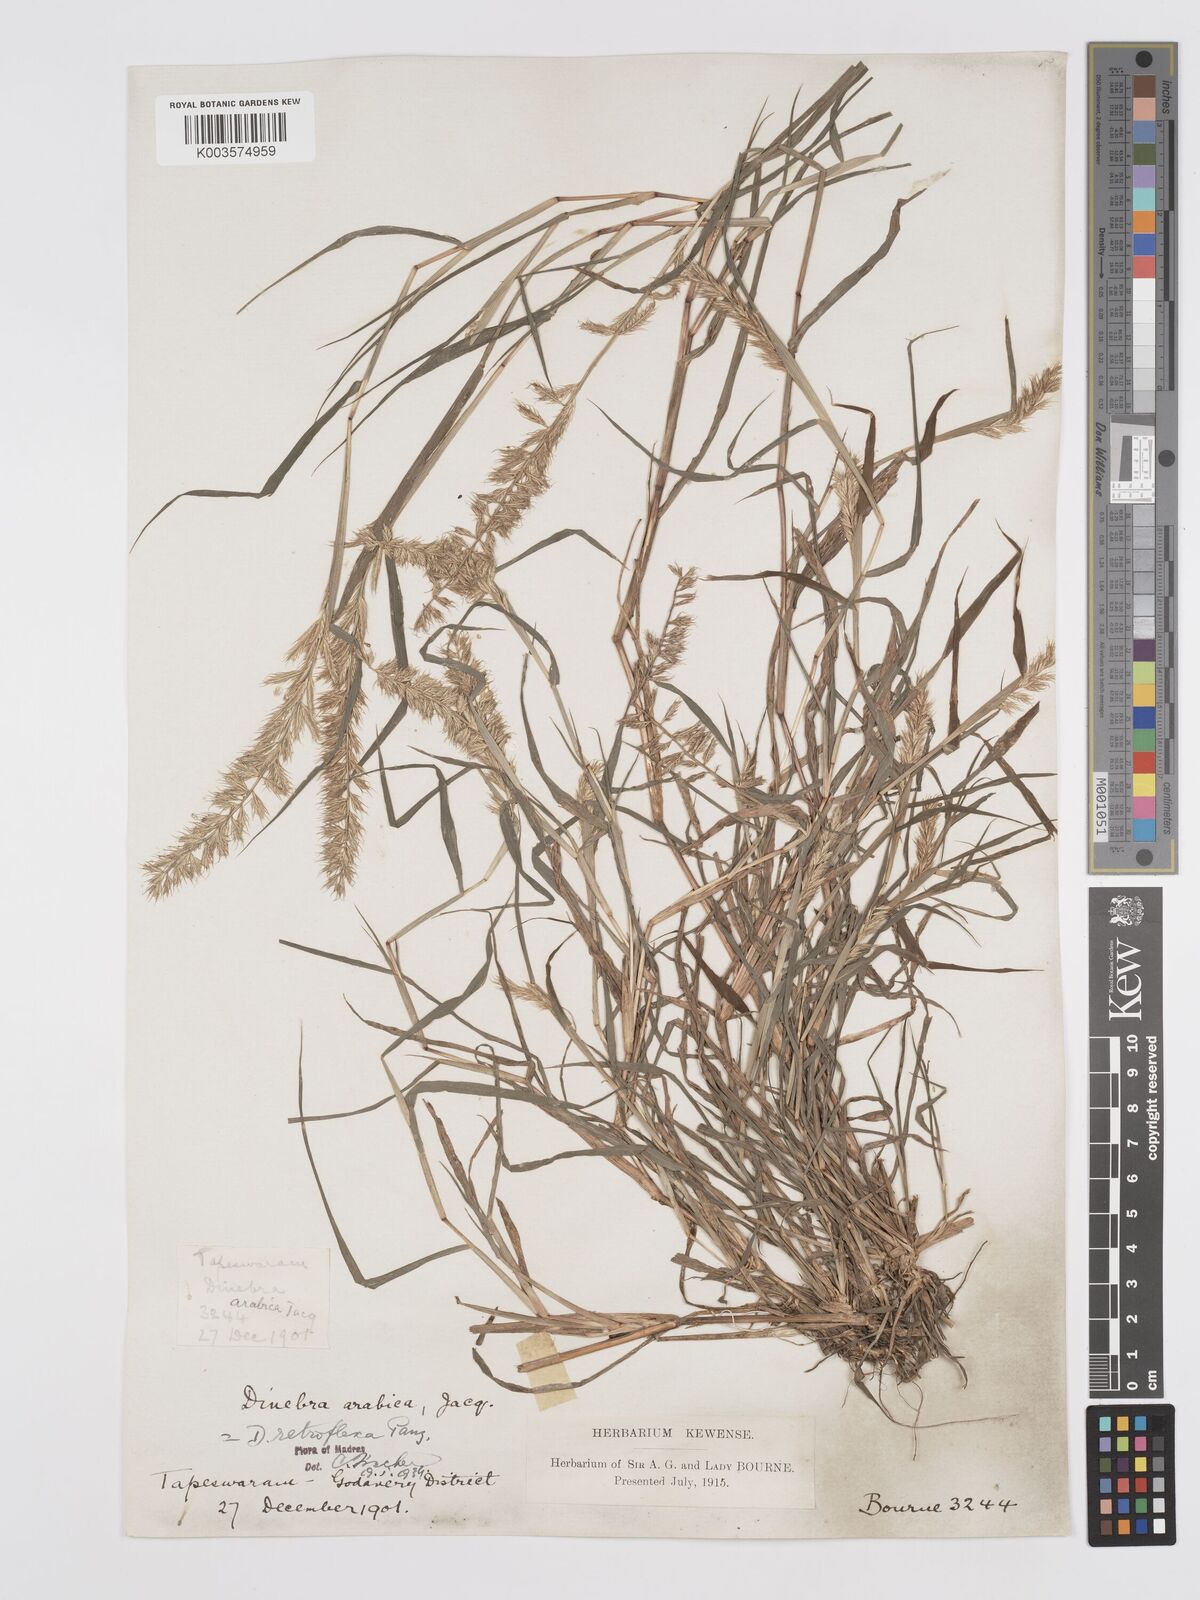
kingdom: Plantae
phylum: Tracheophyta
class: Liliopsida
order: Poales
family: Poaceae
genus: Dinebra
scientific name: Dinebra retroflexa
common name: Viper grass
